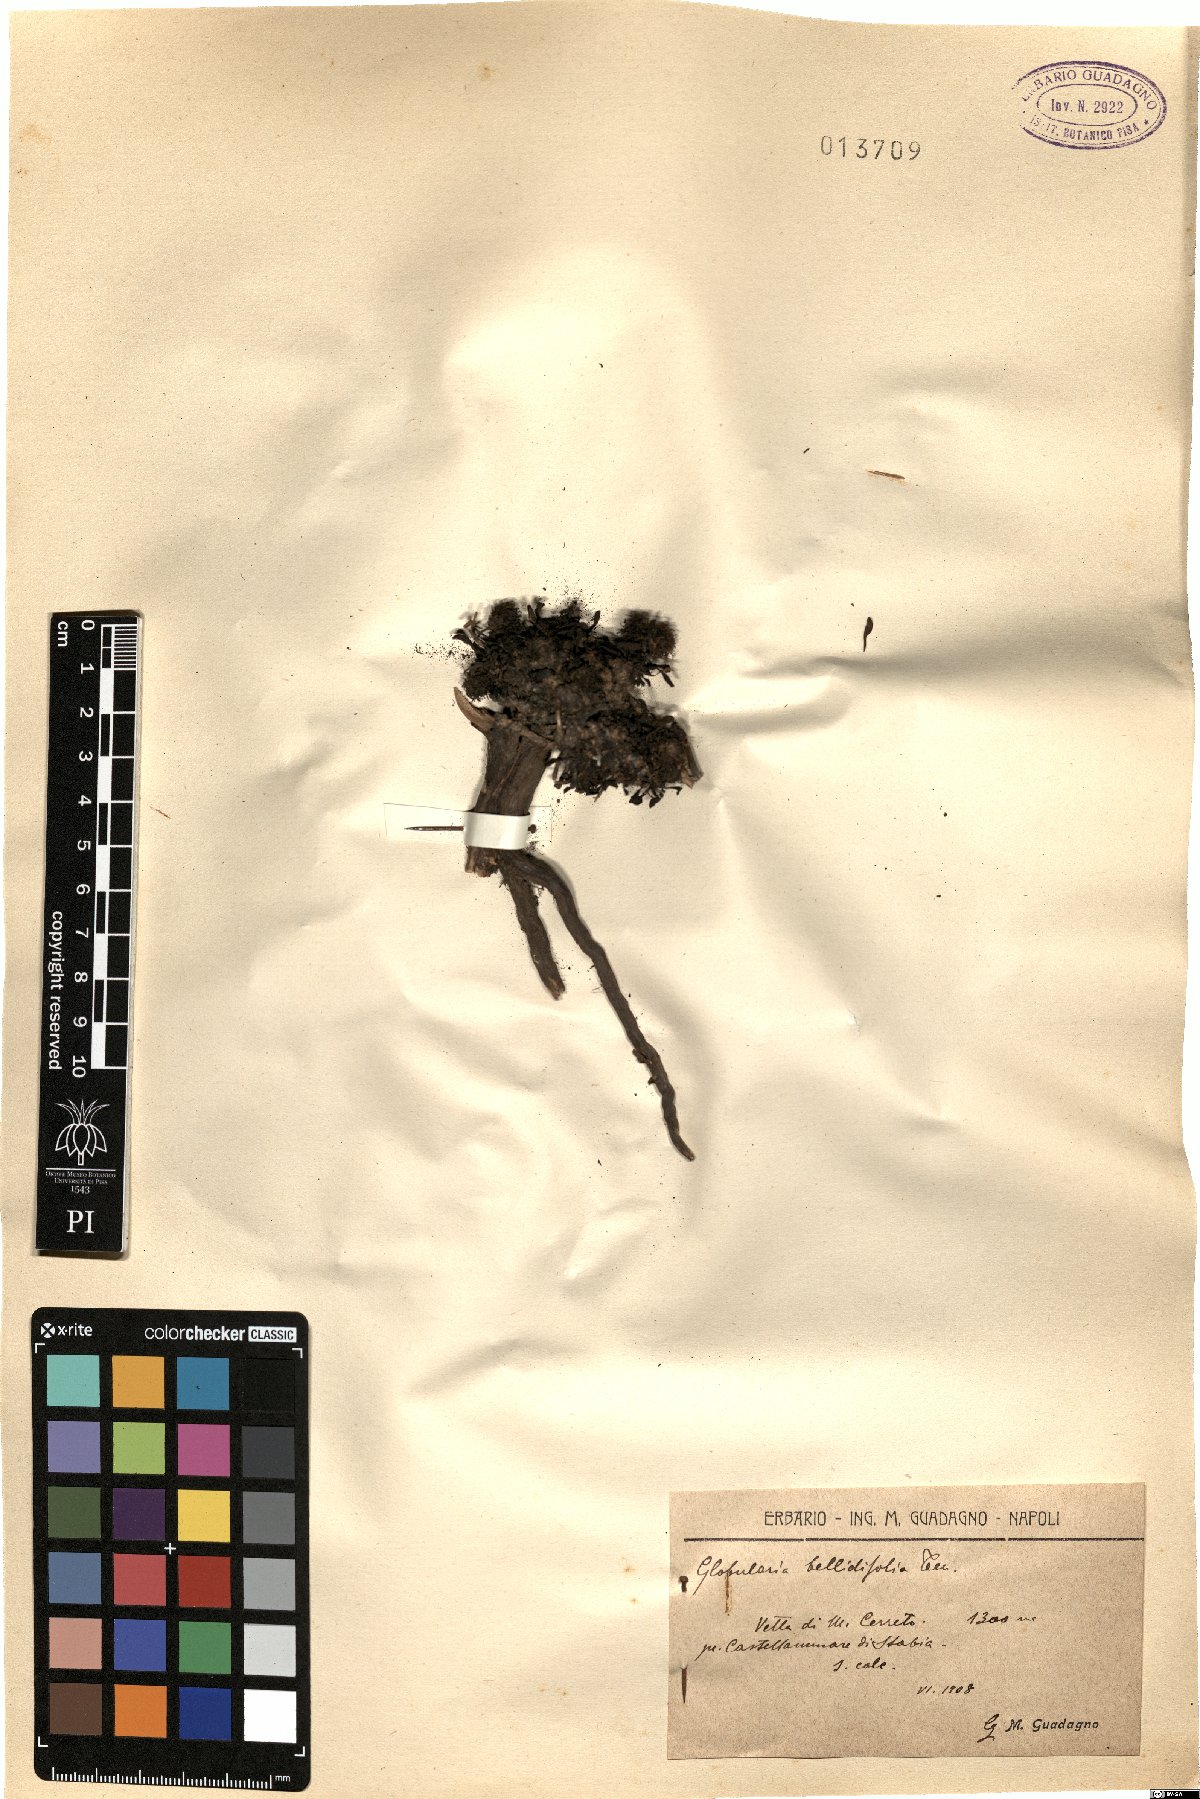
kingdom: Plantae
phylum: Tracheophyta
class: Magnoliopsida
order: Lamiales
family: Plantaginaceae
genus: Globularia
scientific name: Globularia meridionalis
